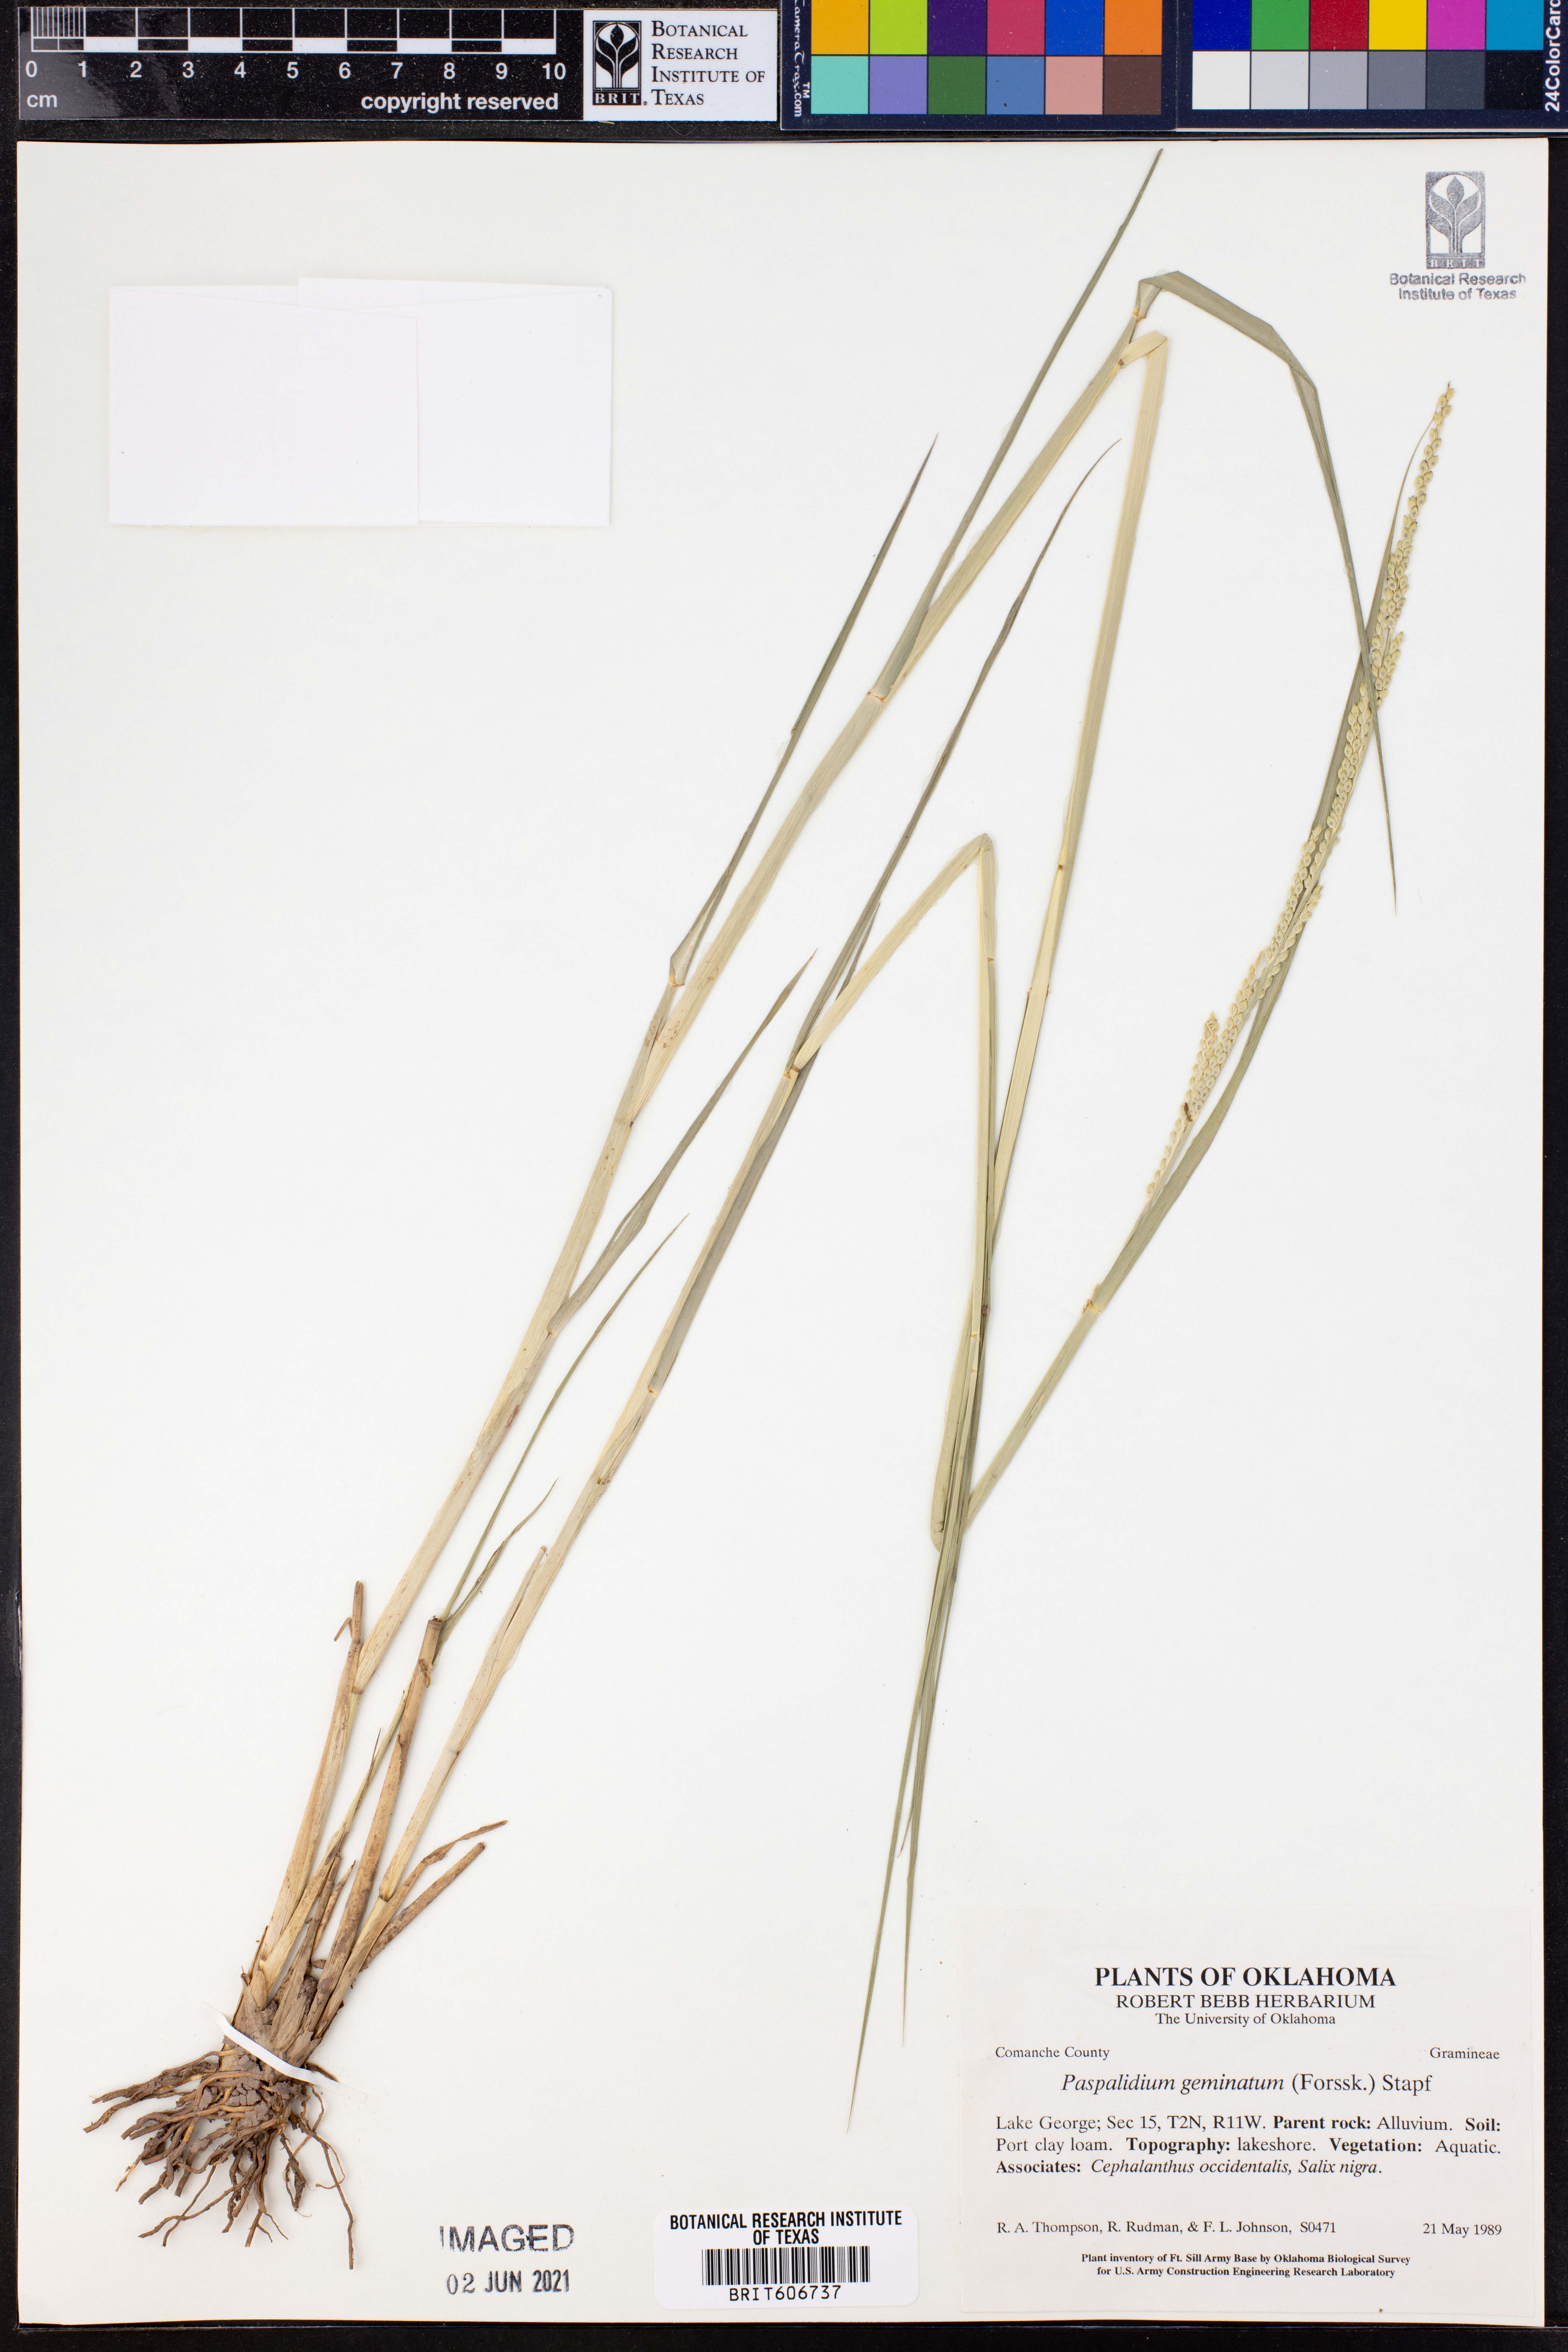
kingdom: Plantae
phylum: Tracheophyta
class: Liliopsida
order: Poales
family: Poaceae
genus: Setaria
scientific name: Setaria geminata
